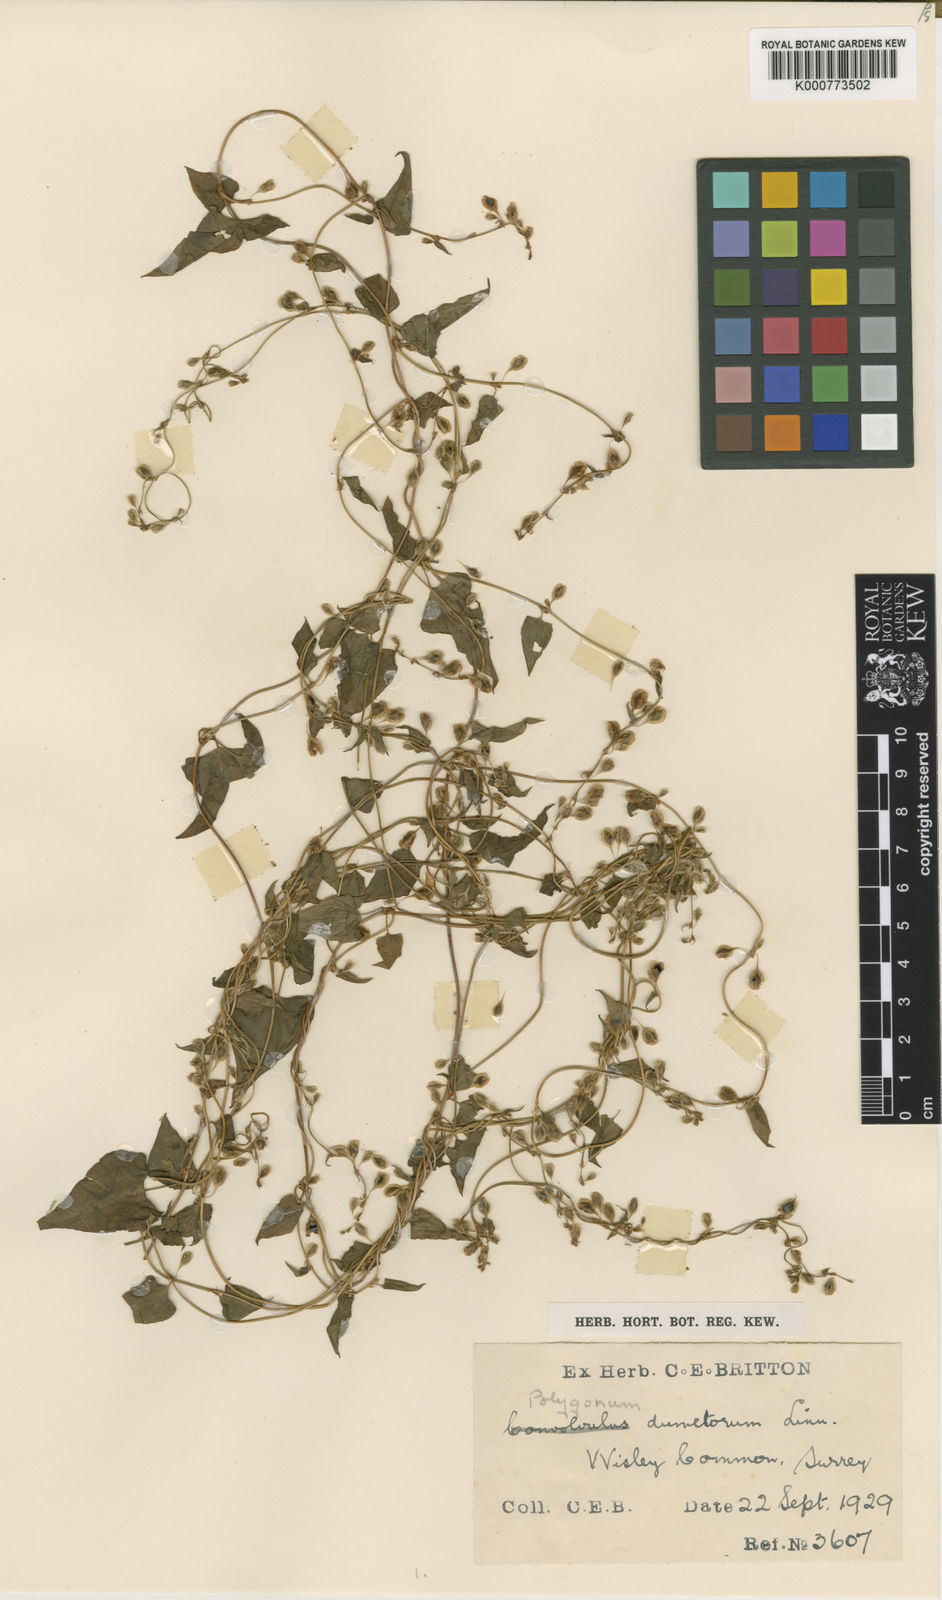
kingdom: Plantae
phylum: Tracheophyta
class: Magnoliopsida
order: Caryophyllales
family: Polygonaceae
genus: Fallopia
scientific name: Fallopia dumetorum
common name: Copse-bindweed
